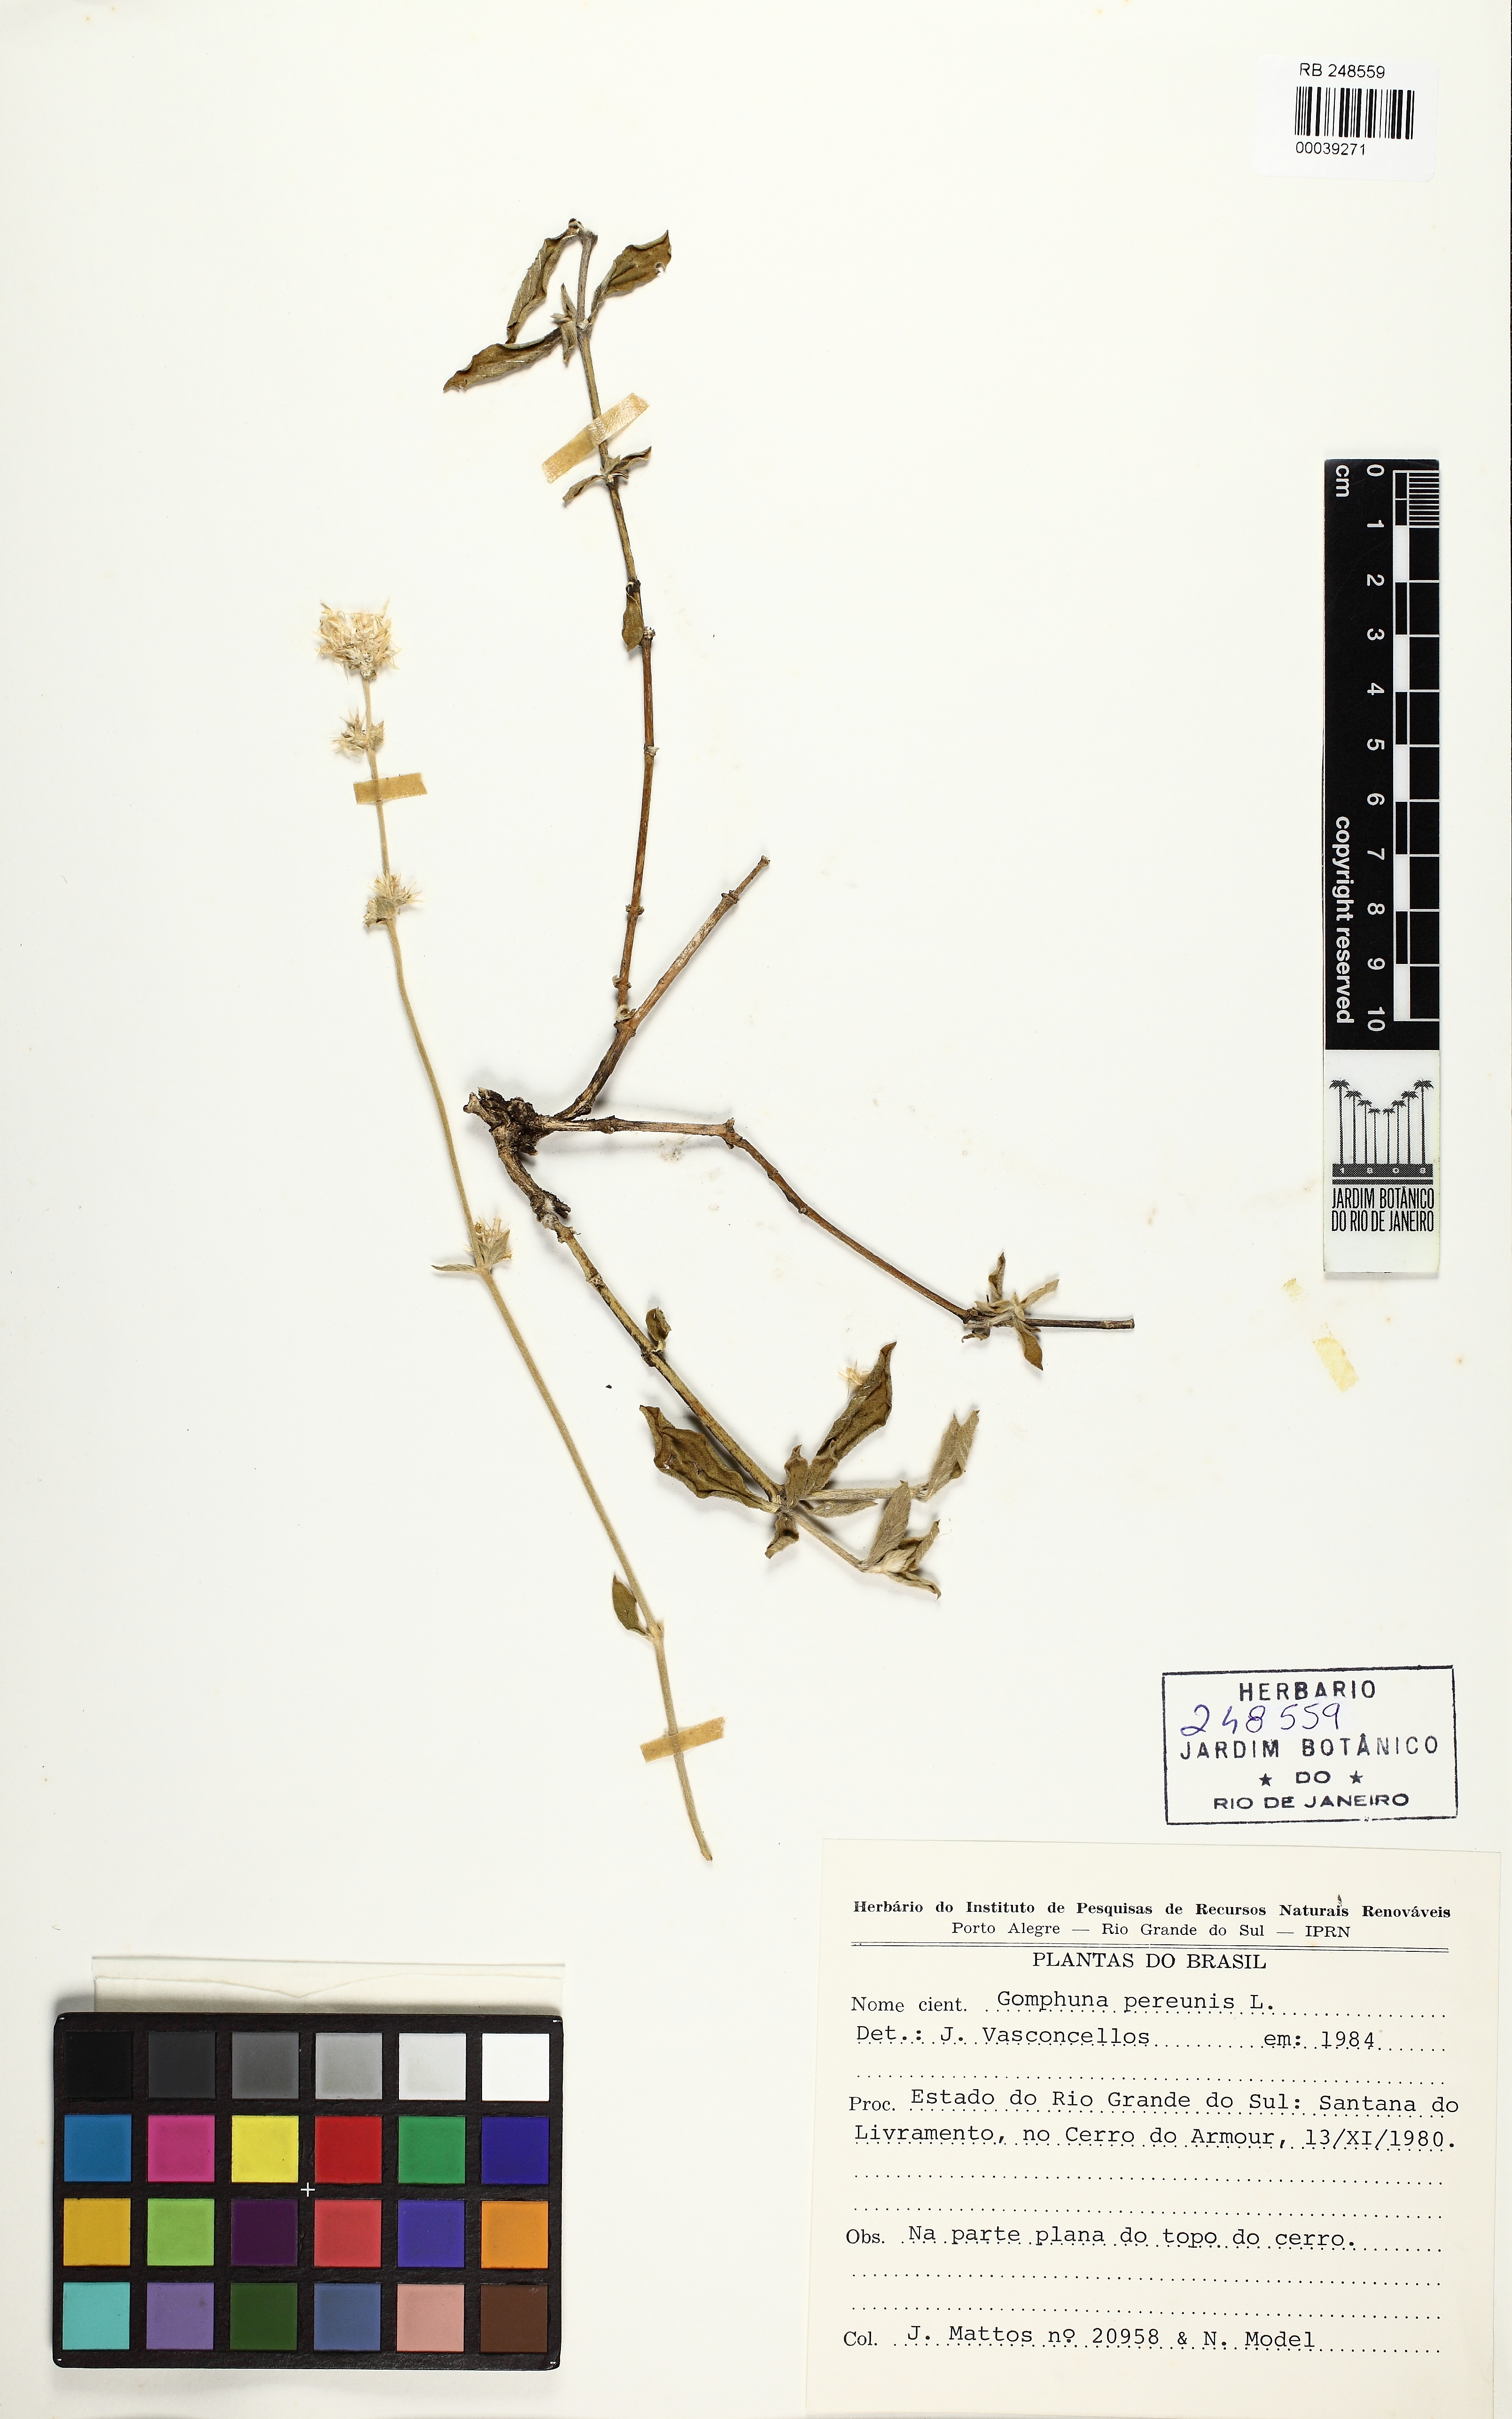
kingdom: Plantae
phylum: Tracheophyta
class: Magnoliopsida
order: Caryophyllales
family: Amaranthaceae
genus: Gomphrena
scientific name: Gomphrena perennis
